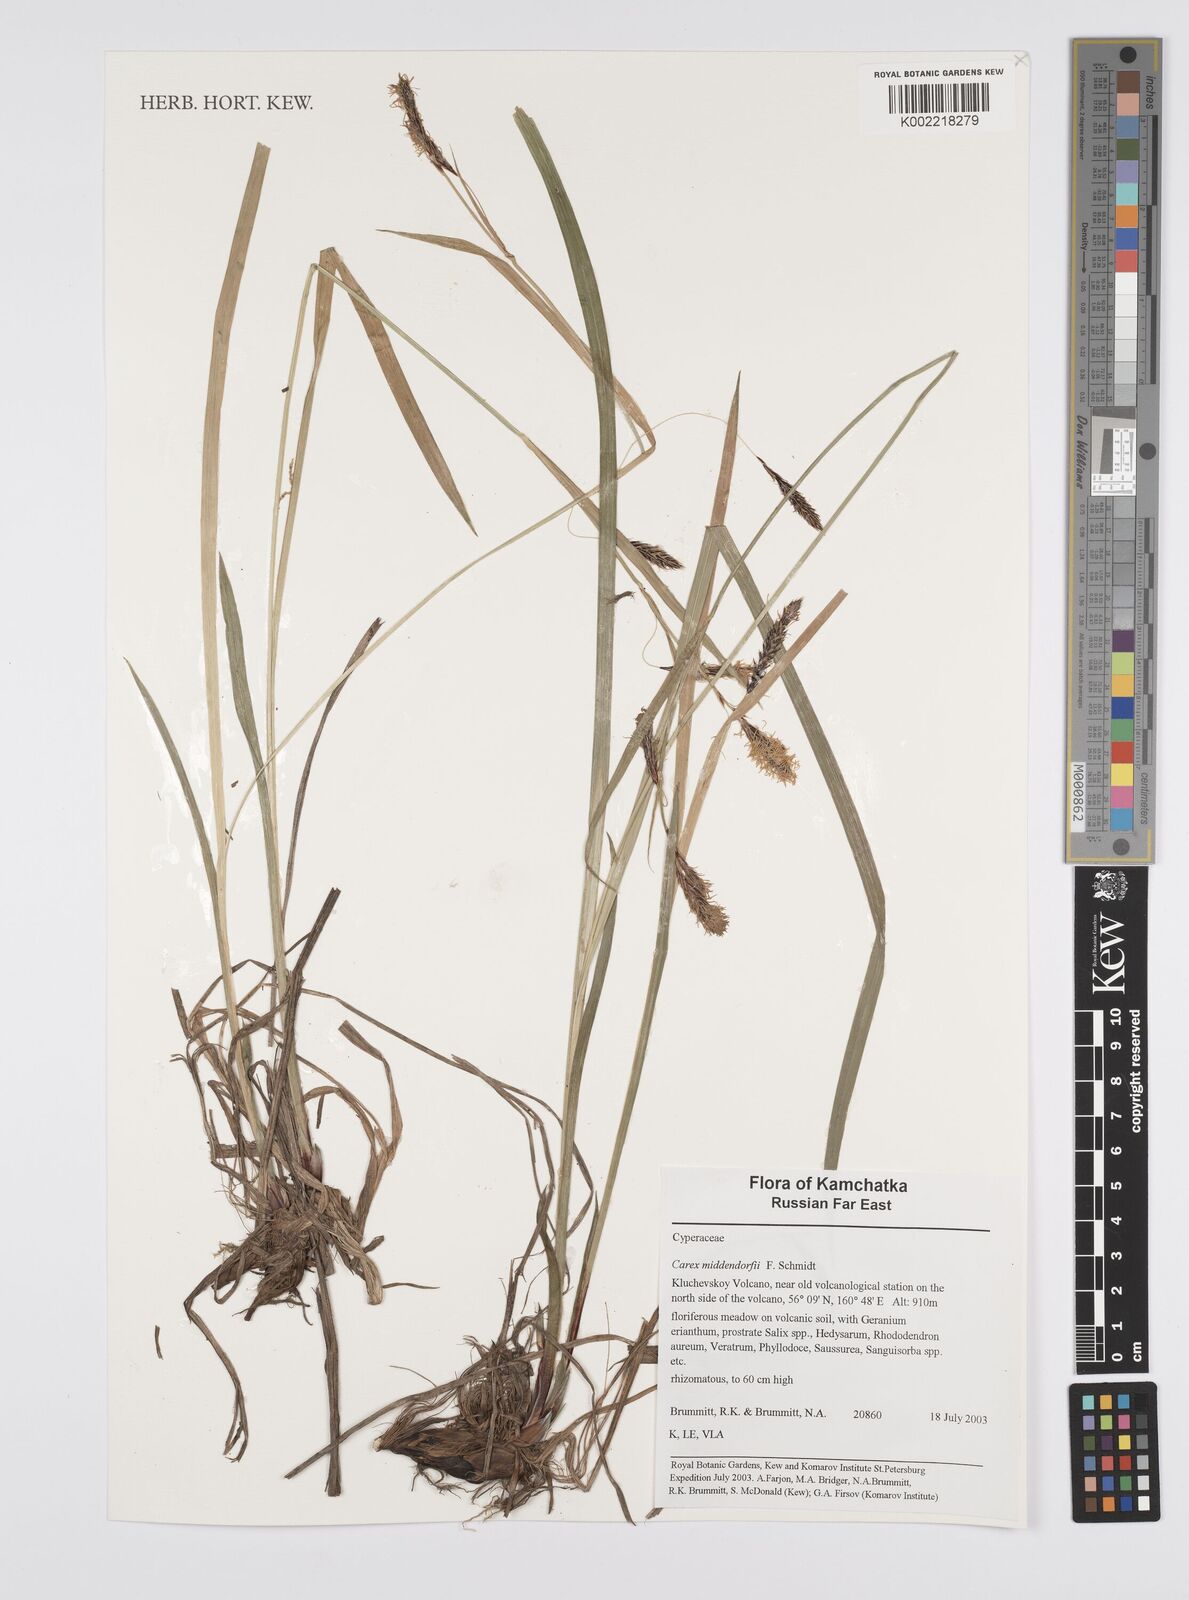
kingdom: Plantae
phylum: Tracheophyta
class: Liliopsida
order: Poales
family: Cyperaceae
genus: Carex
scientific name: Carex middendorffii
